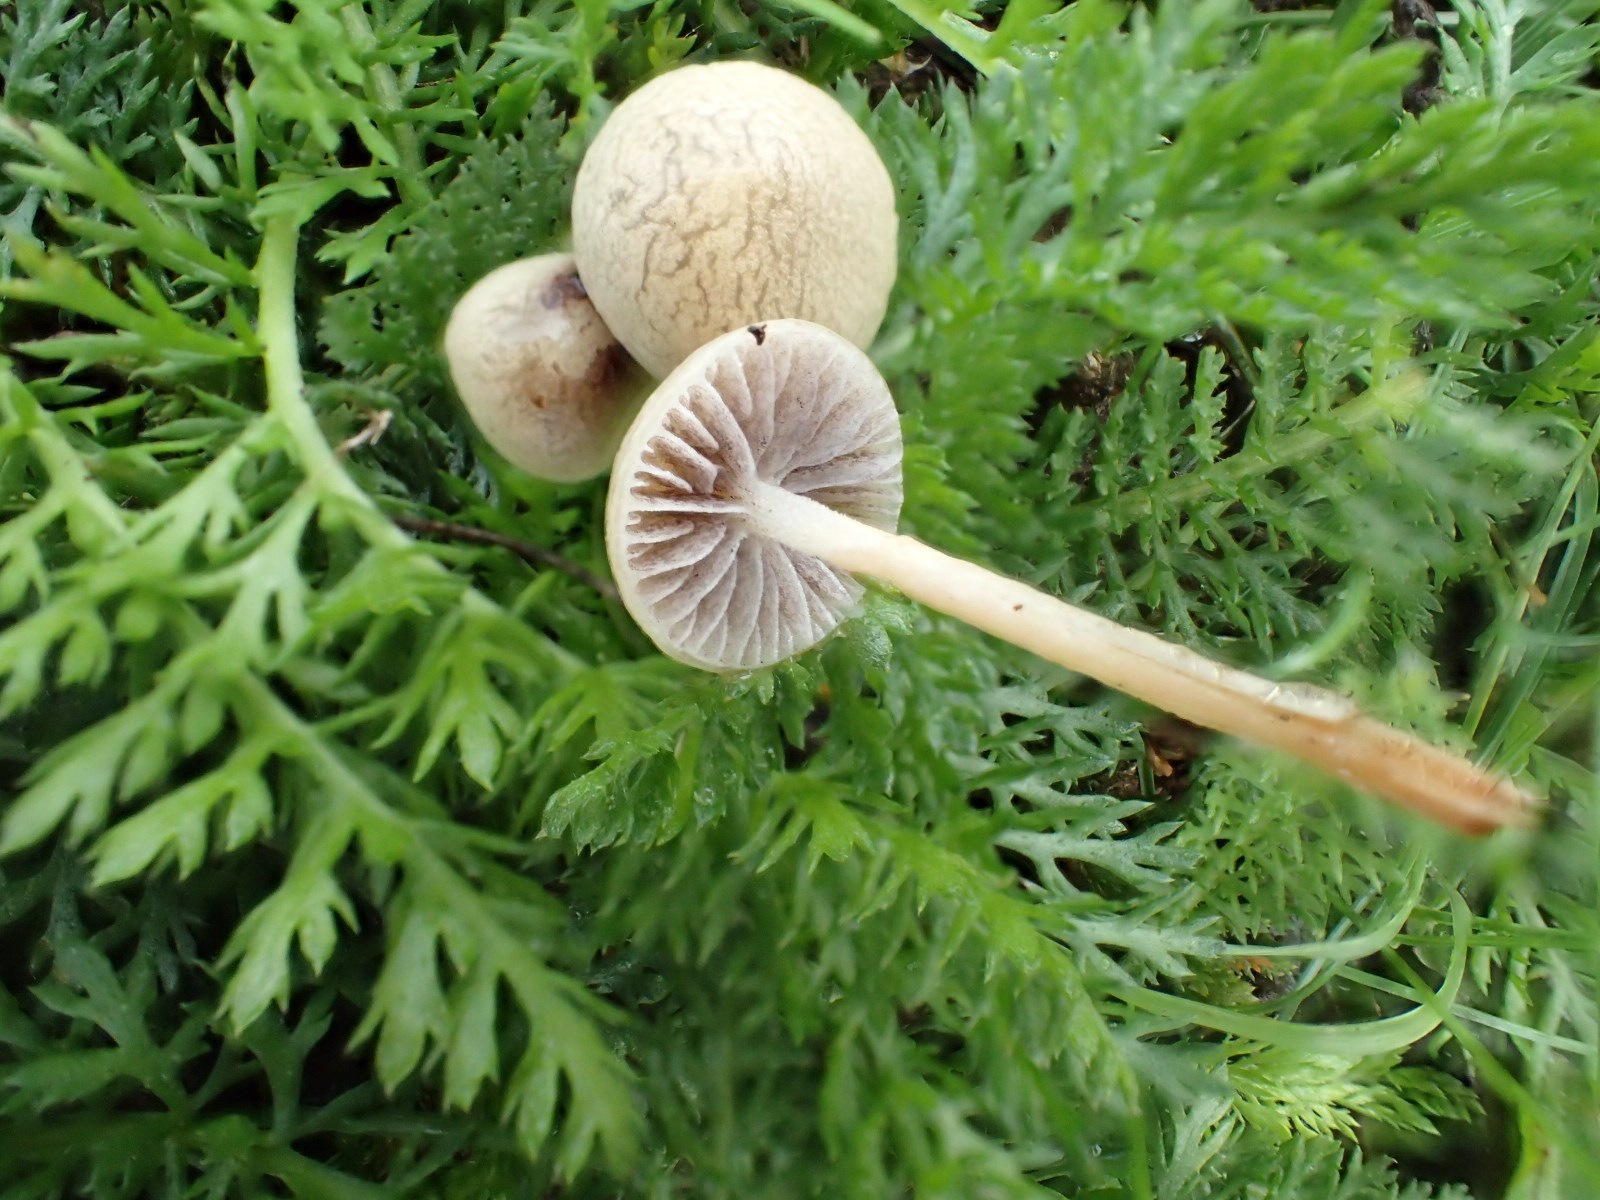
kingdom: Fungi
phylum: Basidiomycota
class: Agaricomycetes
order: Agaricales
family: Strophariaceae
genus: Agrocybe
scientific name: Agrocybe pediades
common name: almindelig agerhat
